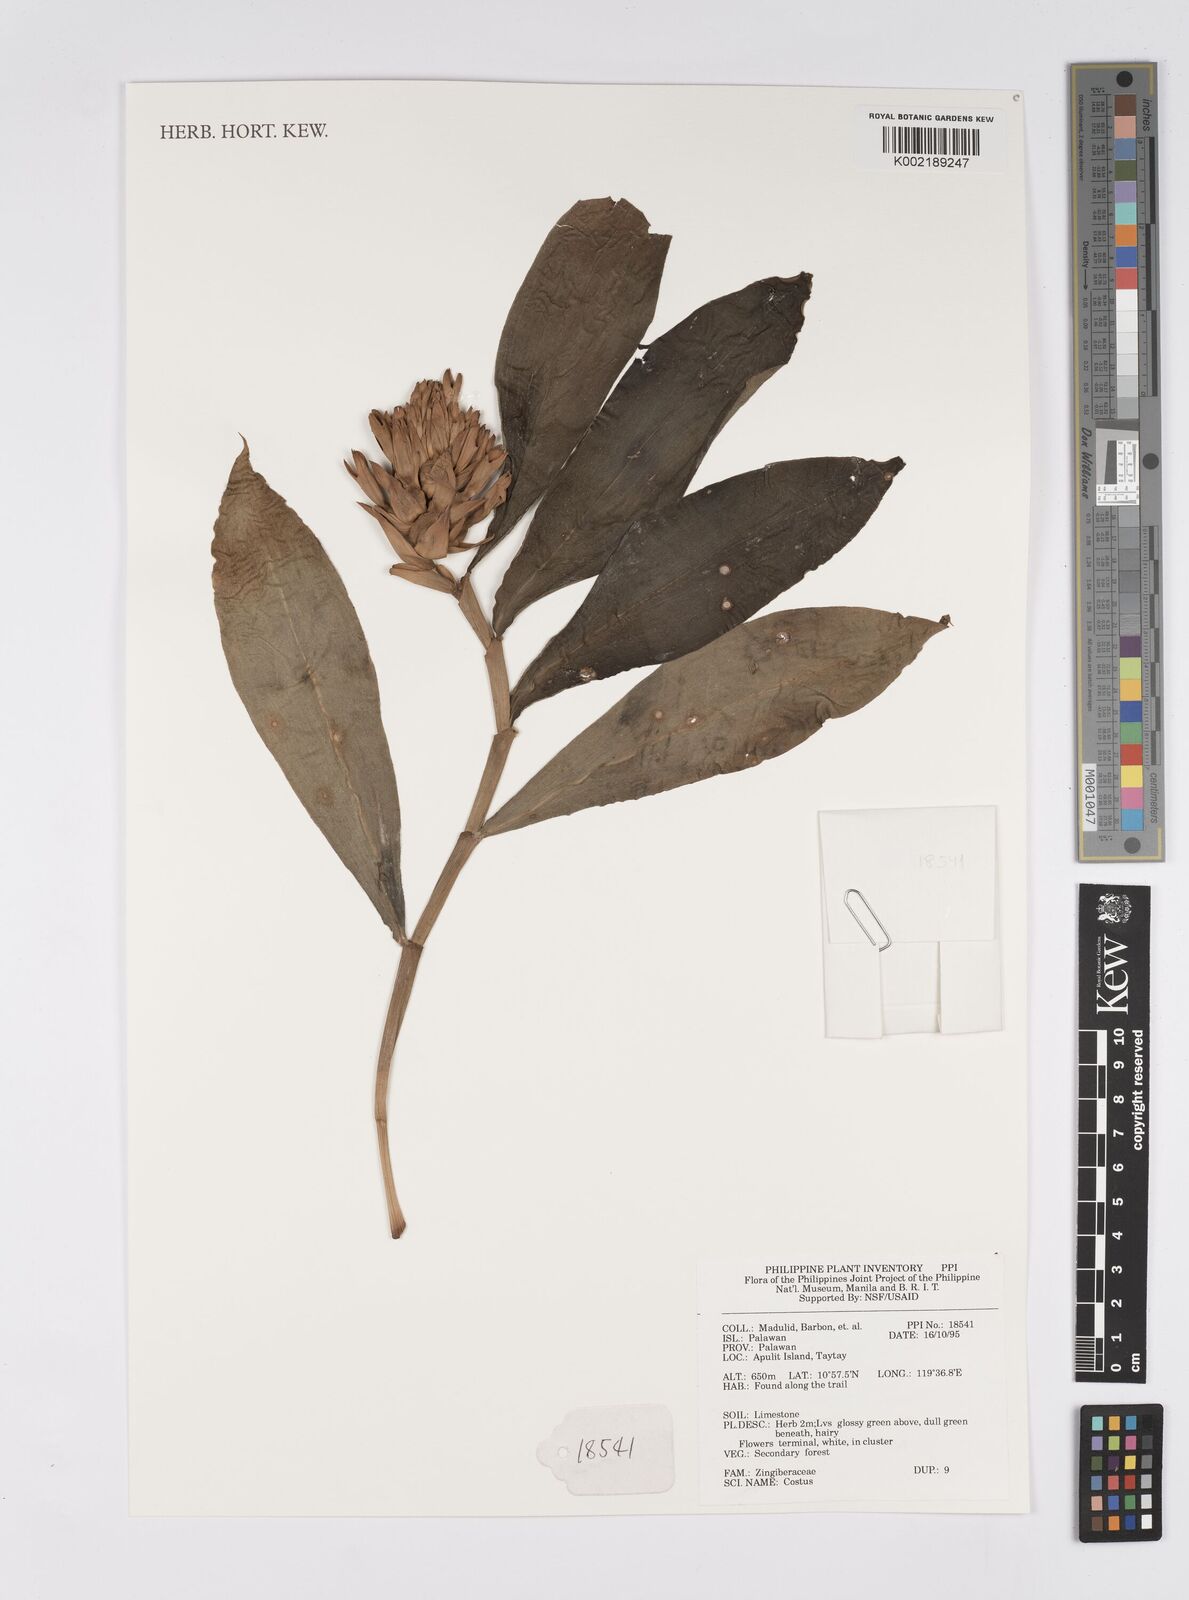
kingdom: Plantae
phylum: Tracheophyta
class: Liliopsida
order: Zingiberales
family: Costaceae
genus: Costus
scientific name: Costus
